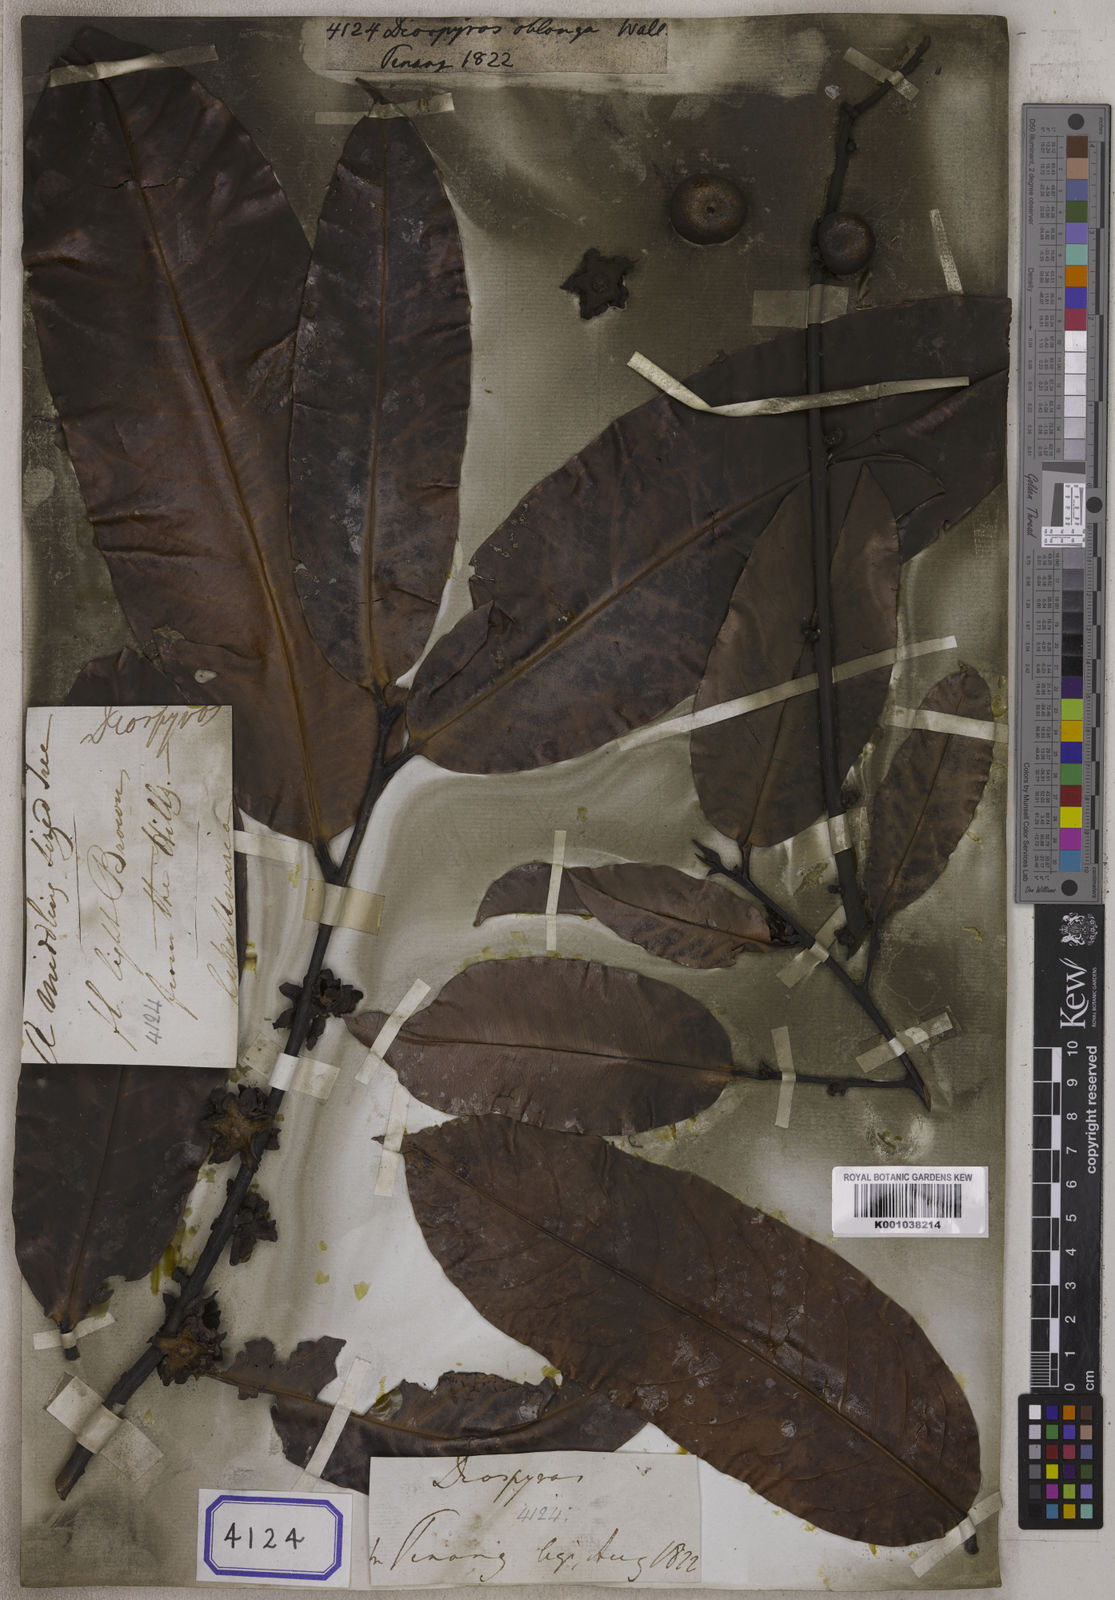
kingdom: Plantae
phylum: Tracheophyta
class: Magnoliopsida
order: Ericales
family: Ebenaceae
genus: Diospyros
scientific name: Diospyros
